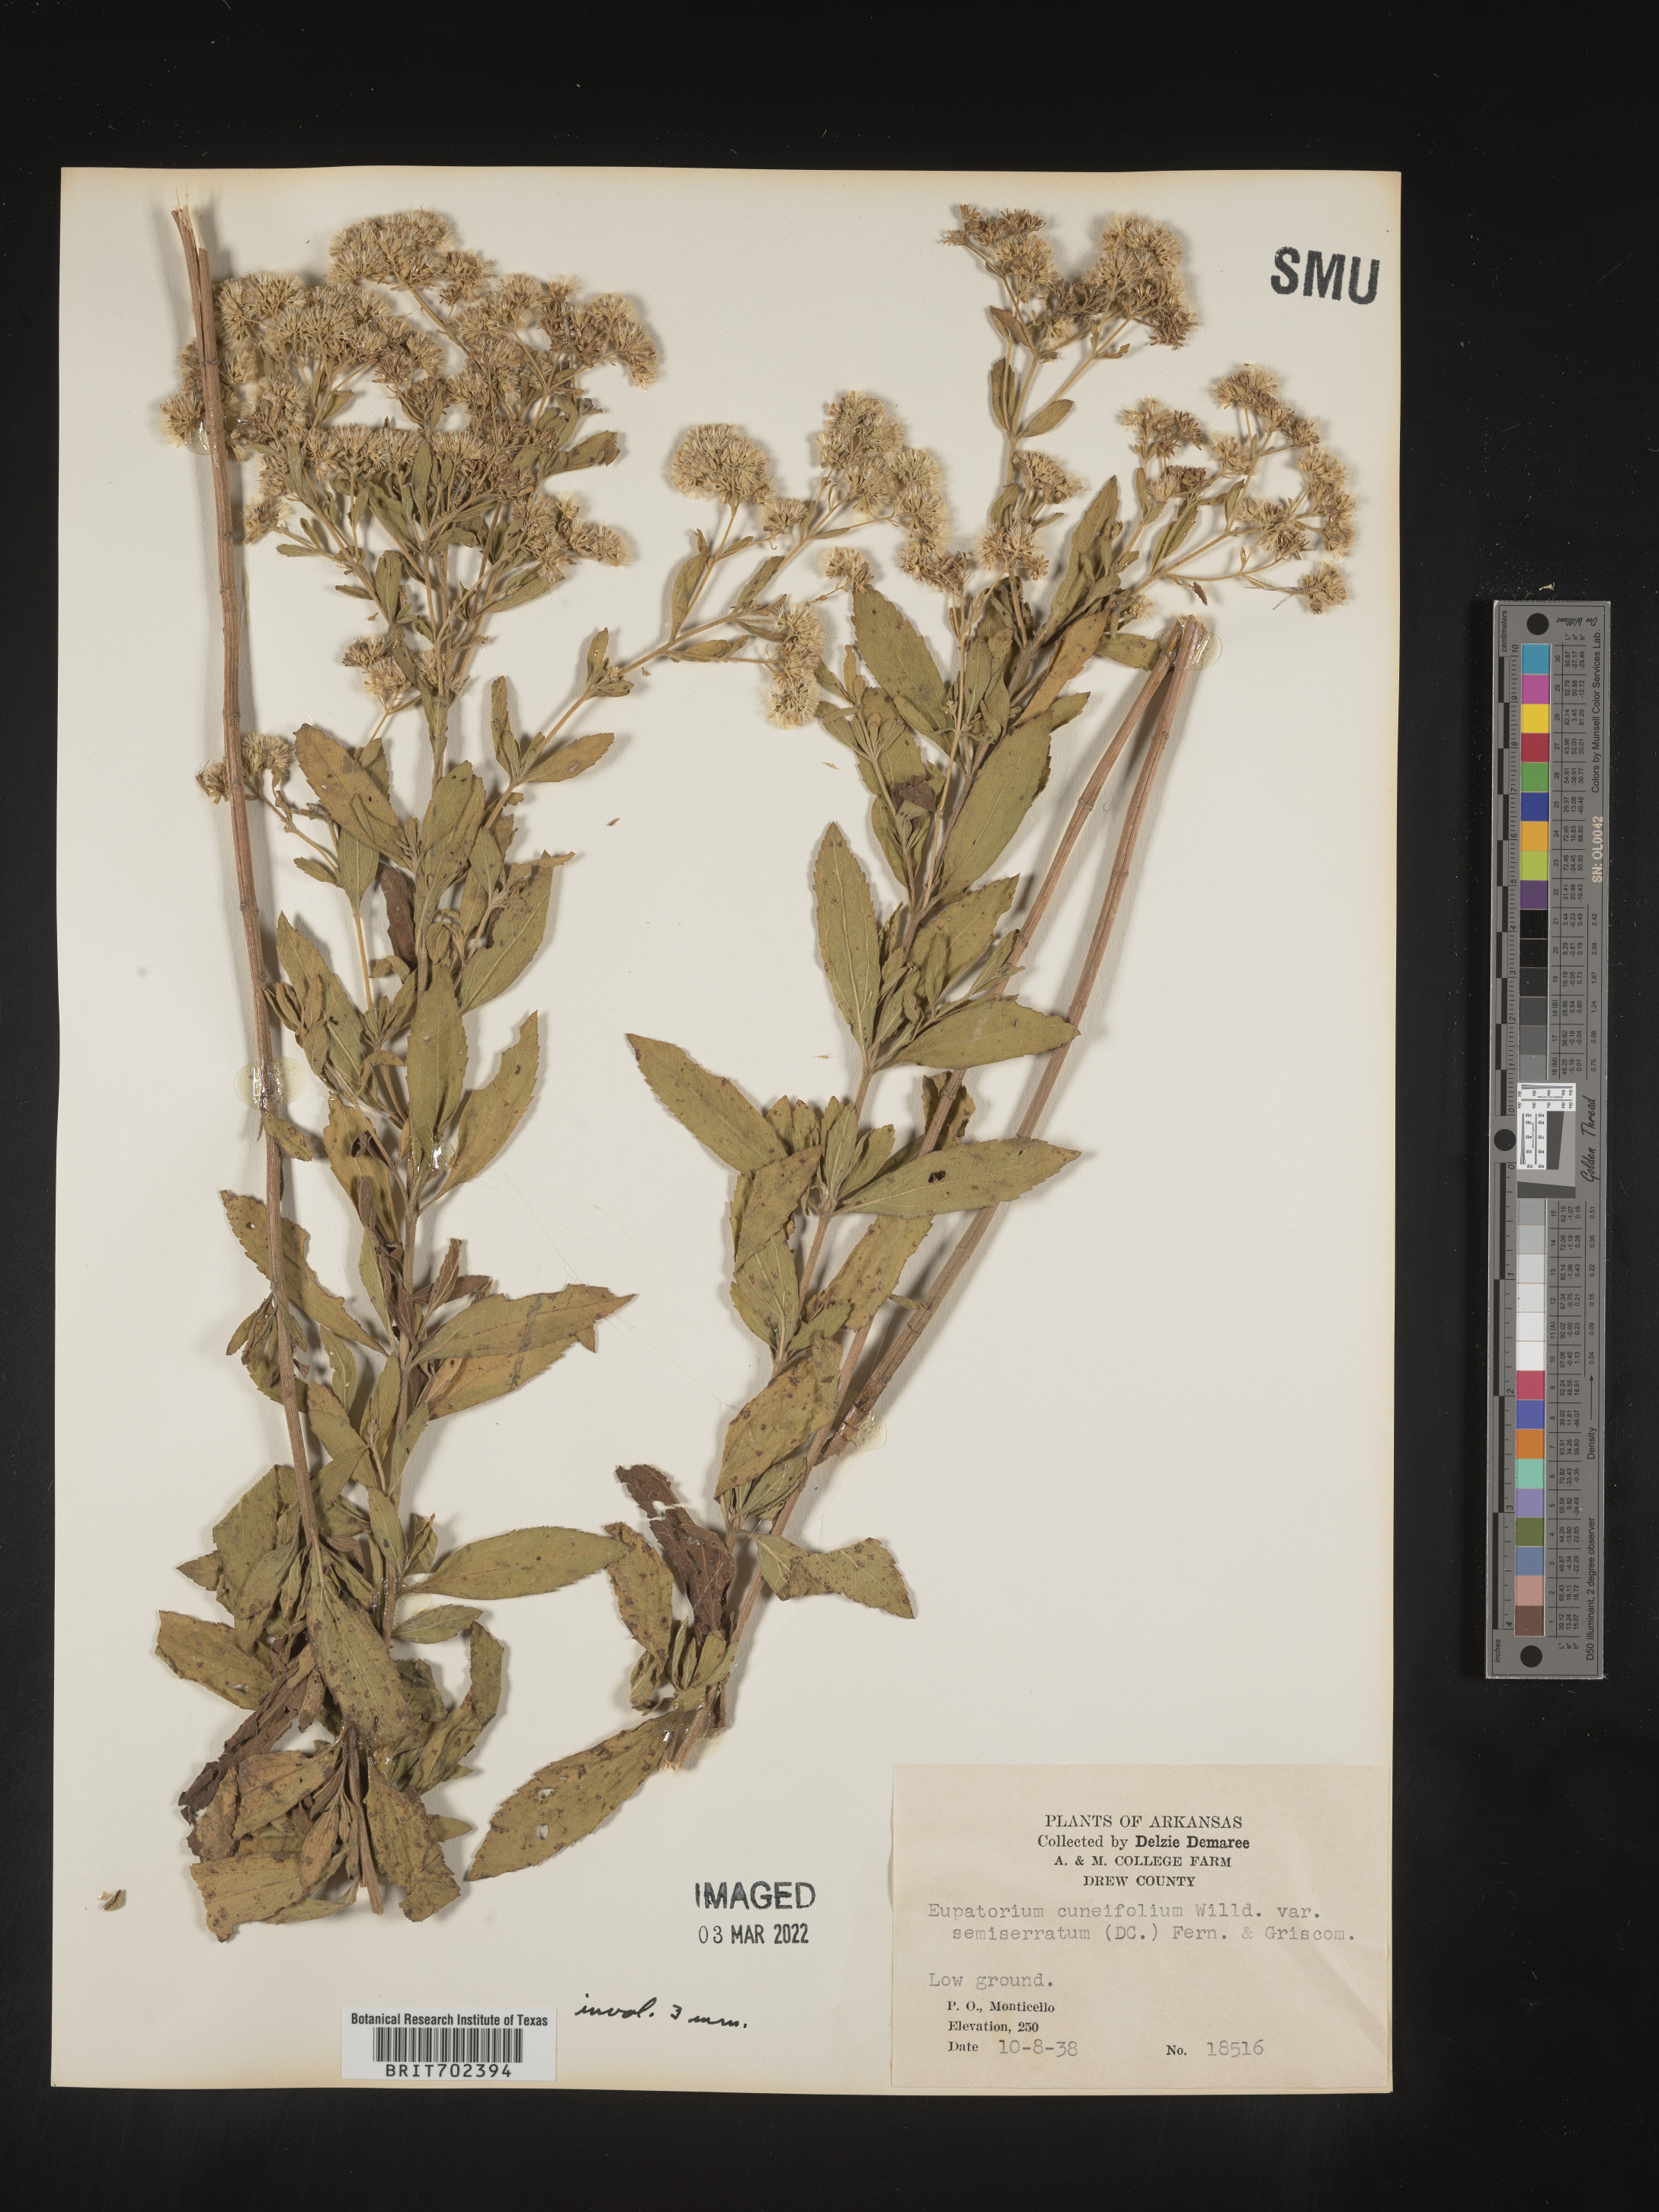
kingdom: Plantae
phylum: Tracheophyta
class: Magnoliopsida
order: Asterales
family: Asteraceae
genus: Eupatorium
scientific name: Eupatorium semiserratum
